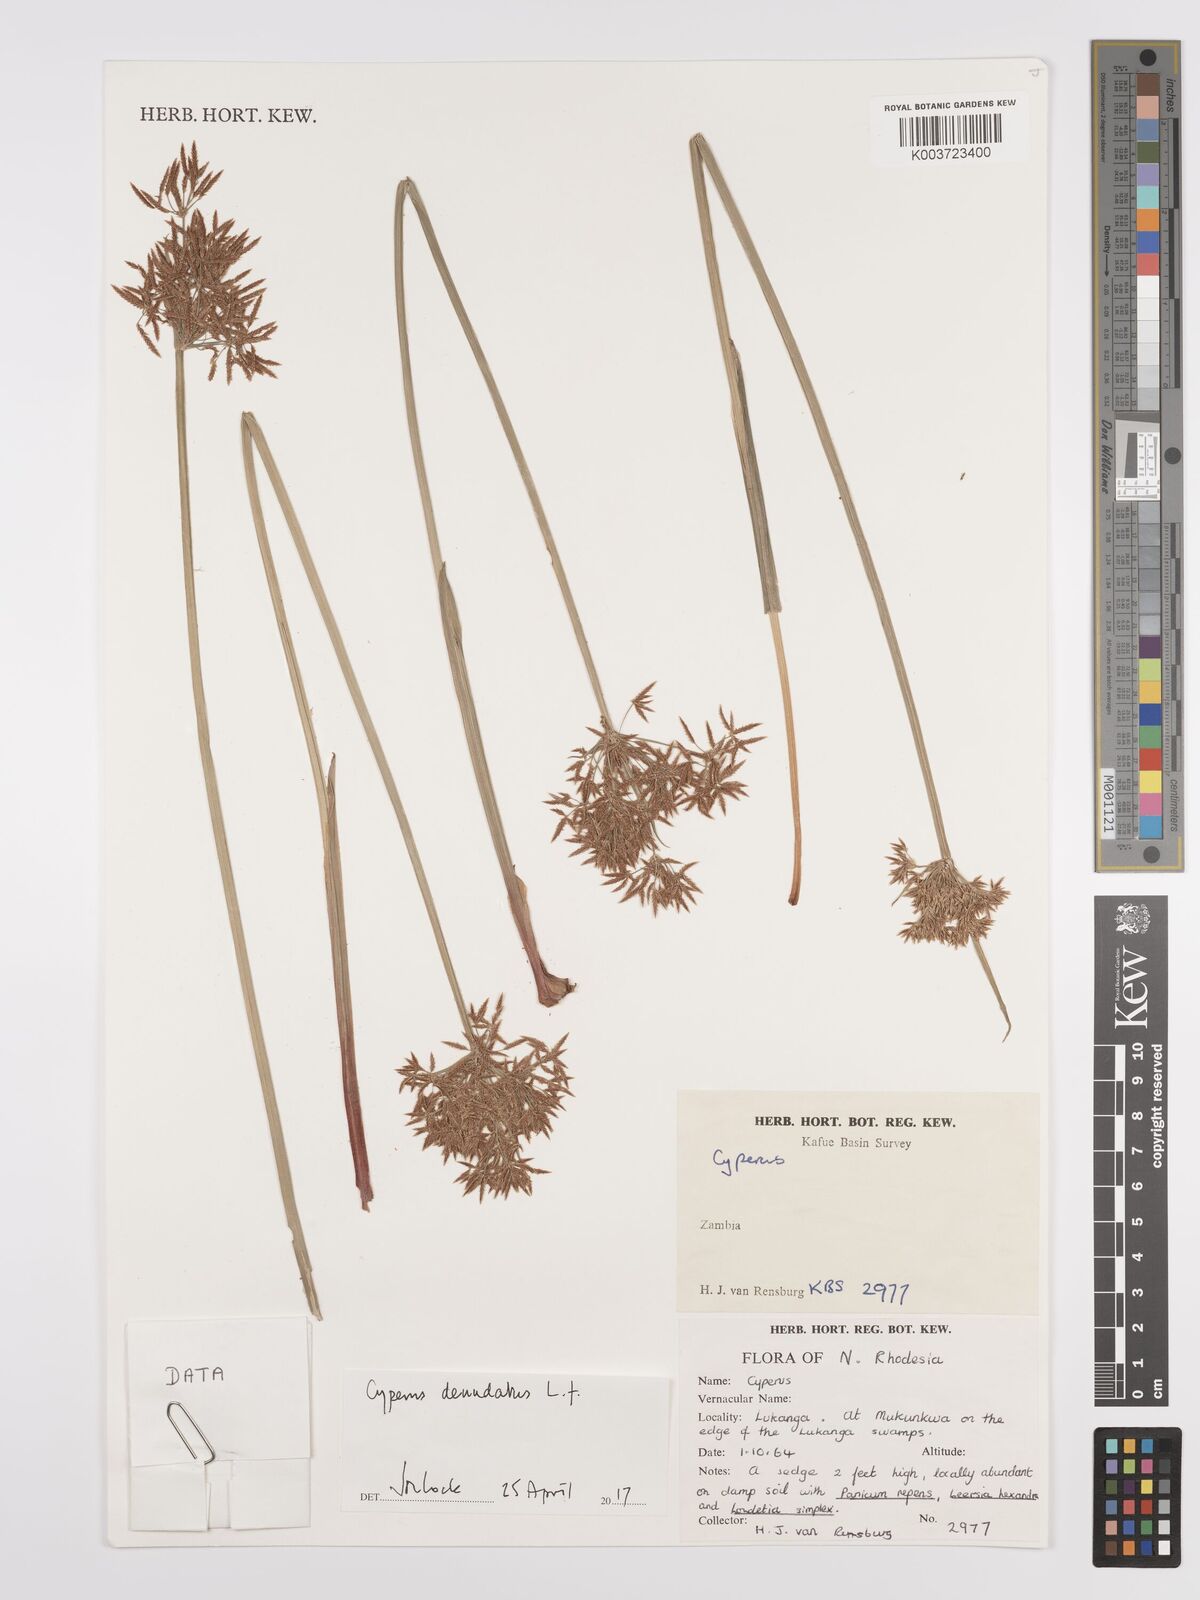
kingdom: Plantae
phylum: Tracheophyta
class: Liliopsida
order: Poales
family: Cyperaceae
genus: Cyperus
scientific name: Cyperus denudatus
